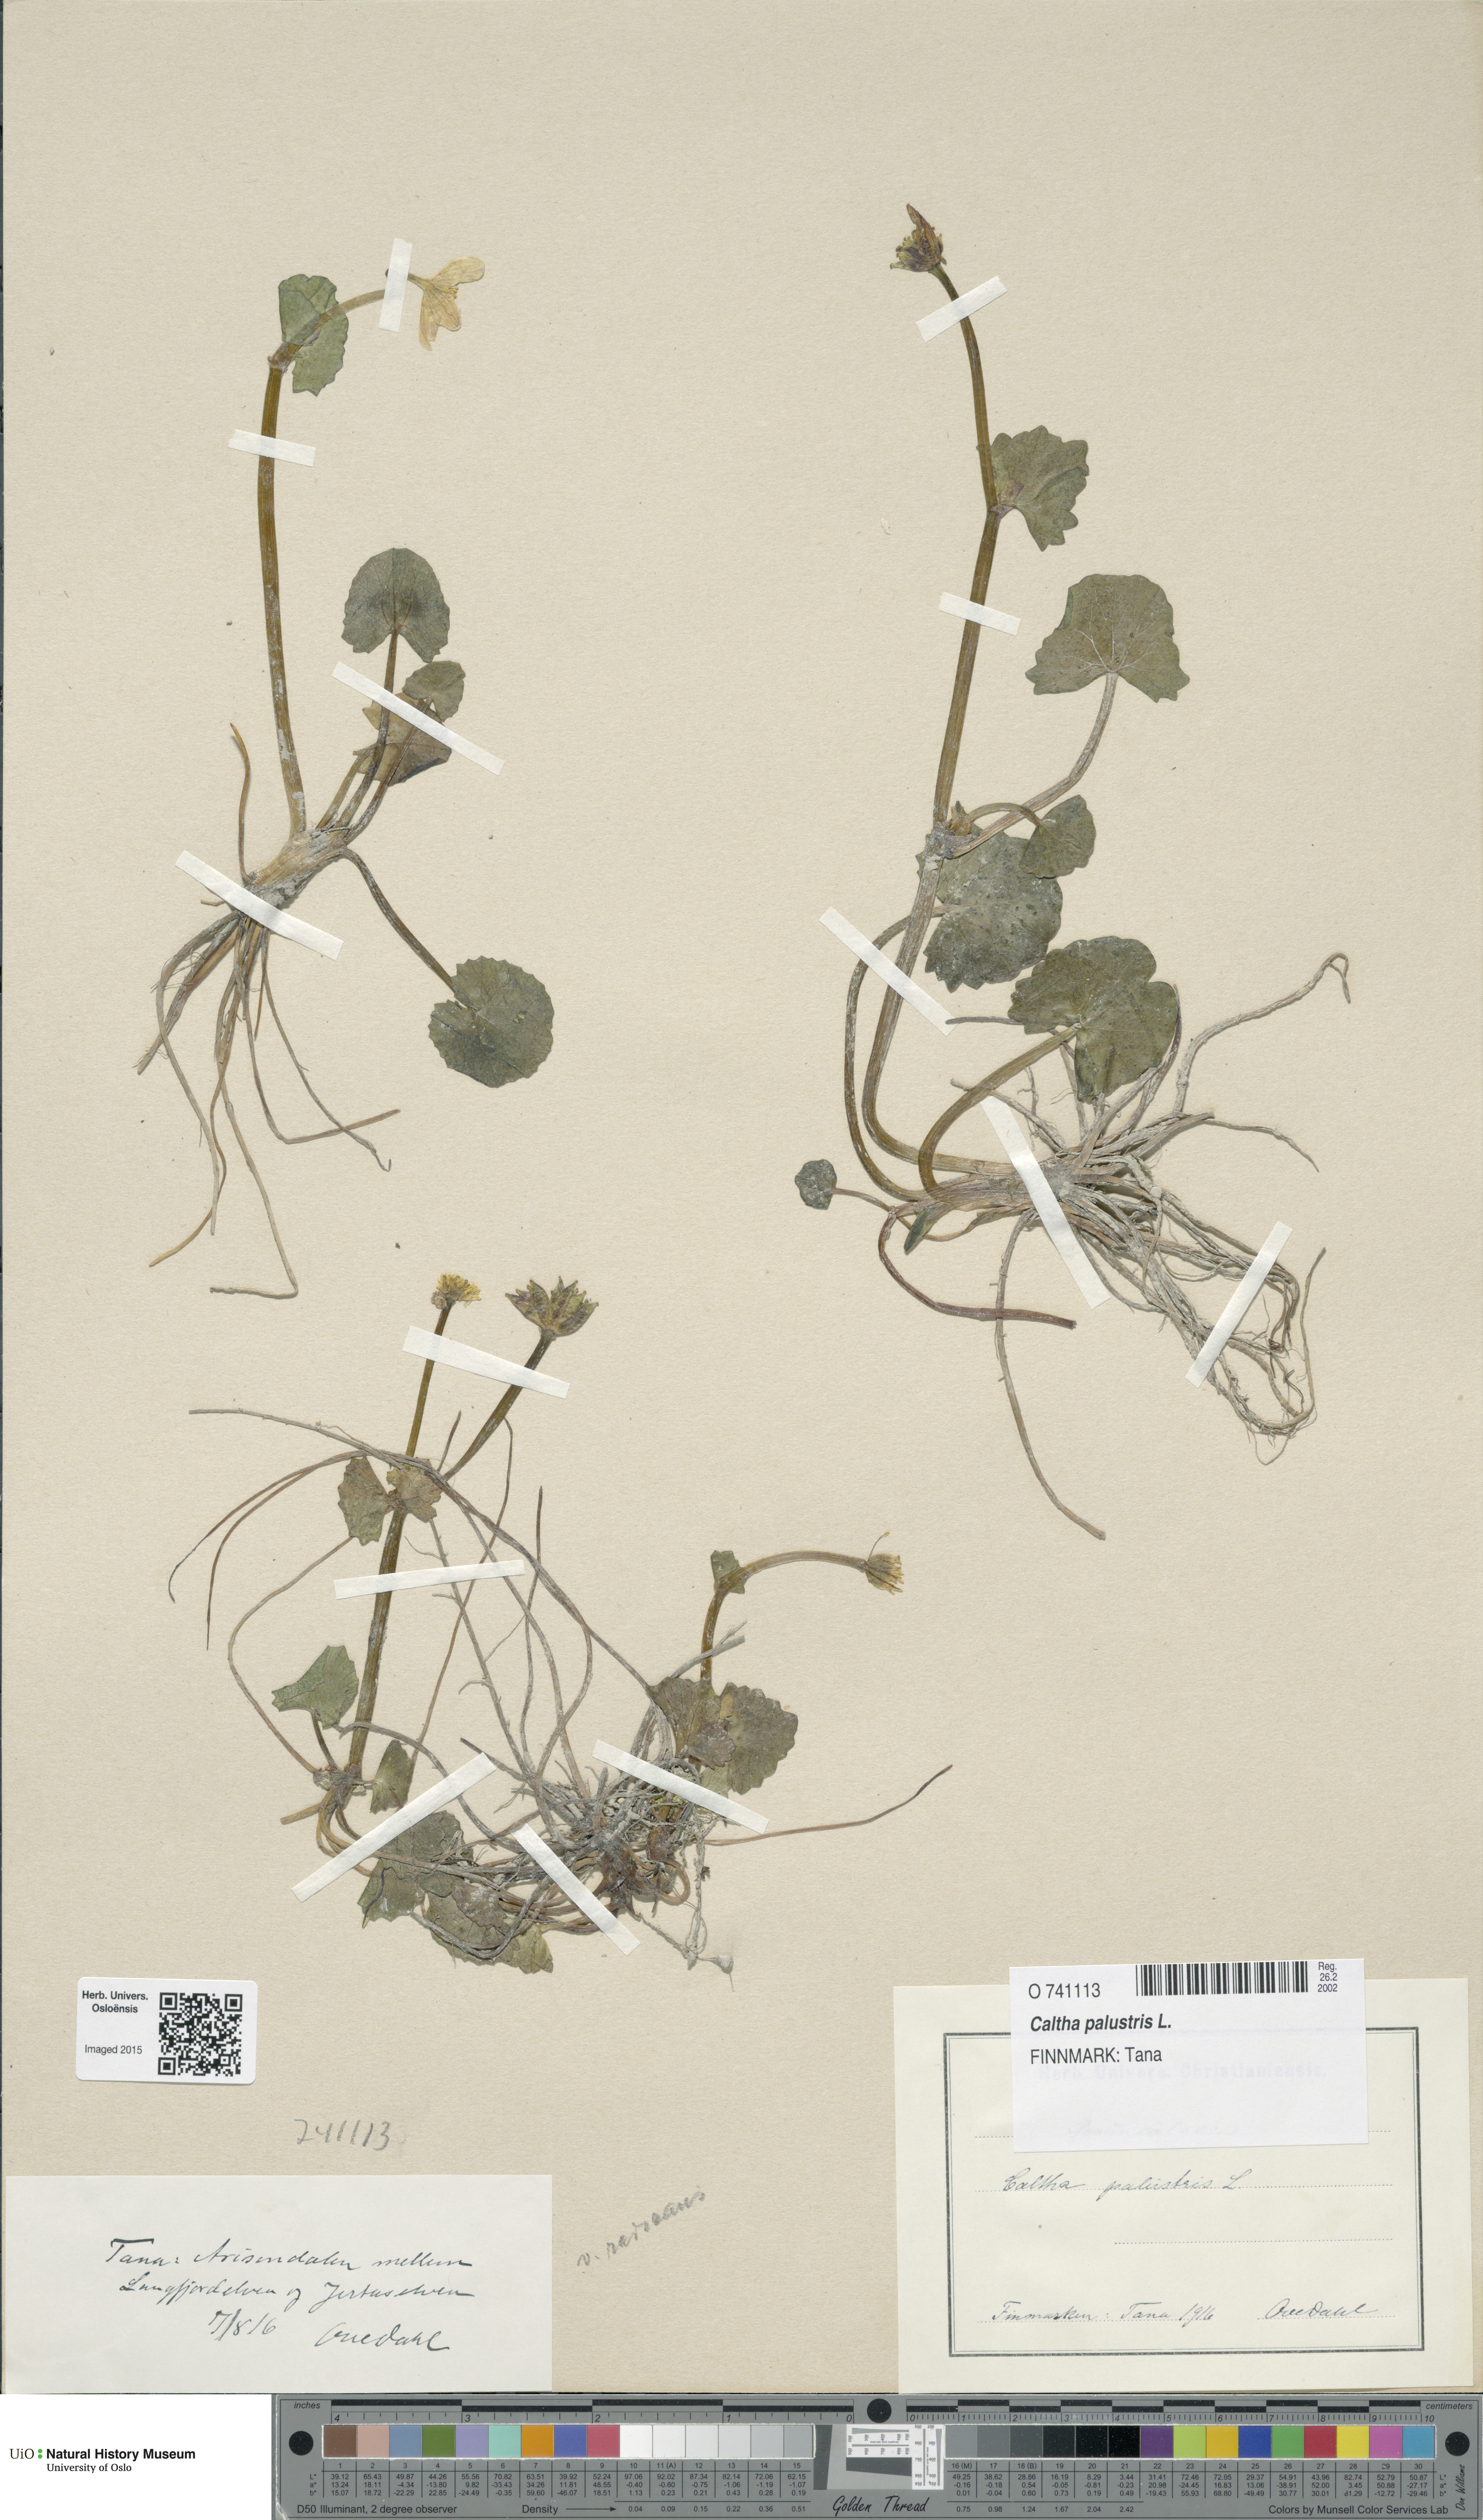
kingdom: Plantae
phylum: Tracheophyta
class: Magnoliopsida
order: Ranunculales
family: Ranunculaceae
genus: Caltha
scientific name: Caltha palustris
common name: Marsh marigold
